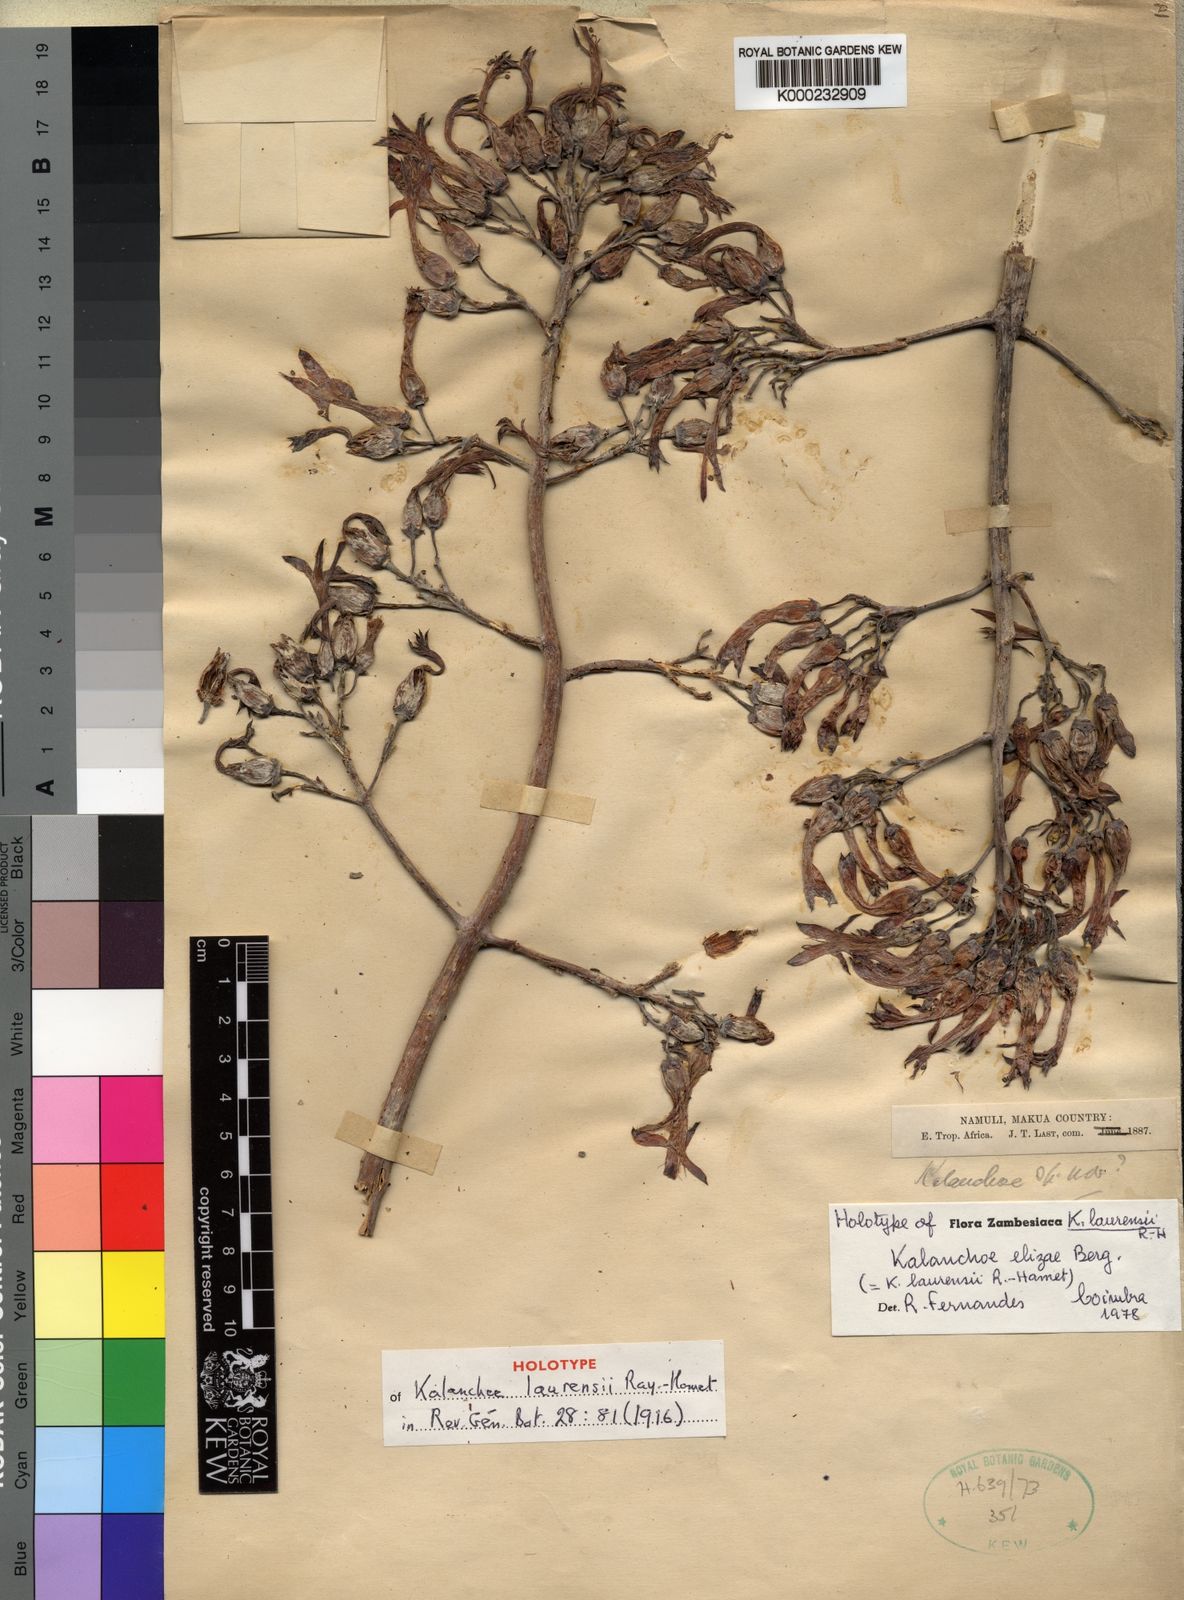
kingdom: Plantae
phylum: Tracheophyta
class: Magnoliopsida
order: Saxifragales
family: Crassulaceae
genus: Kalanchoe
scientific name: Kalanchoe elizae
